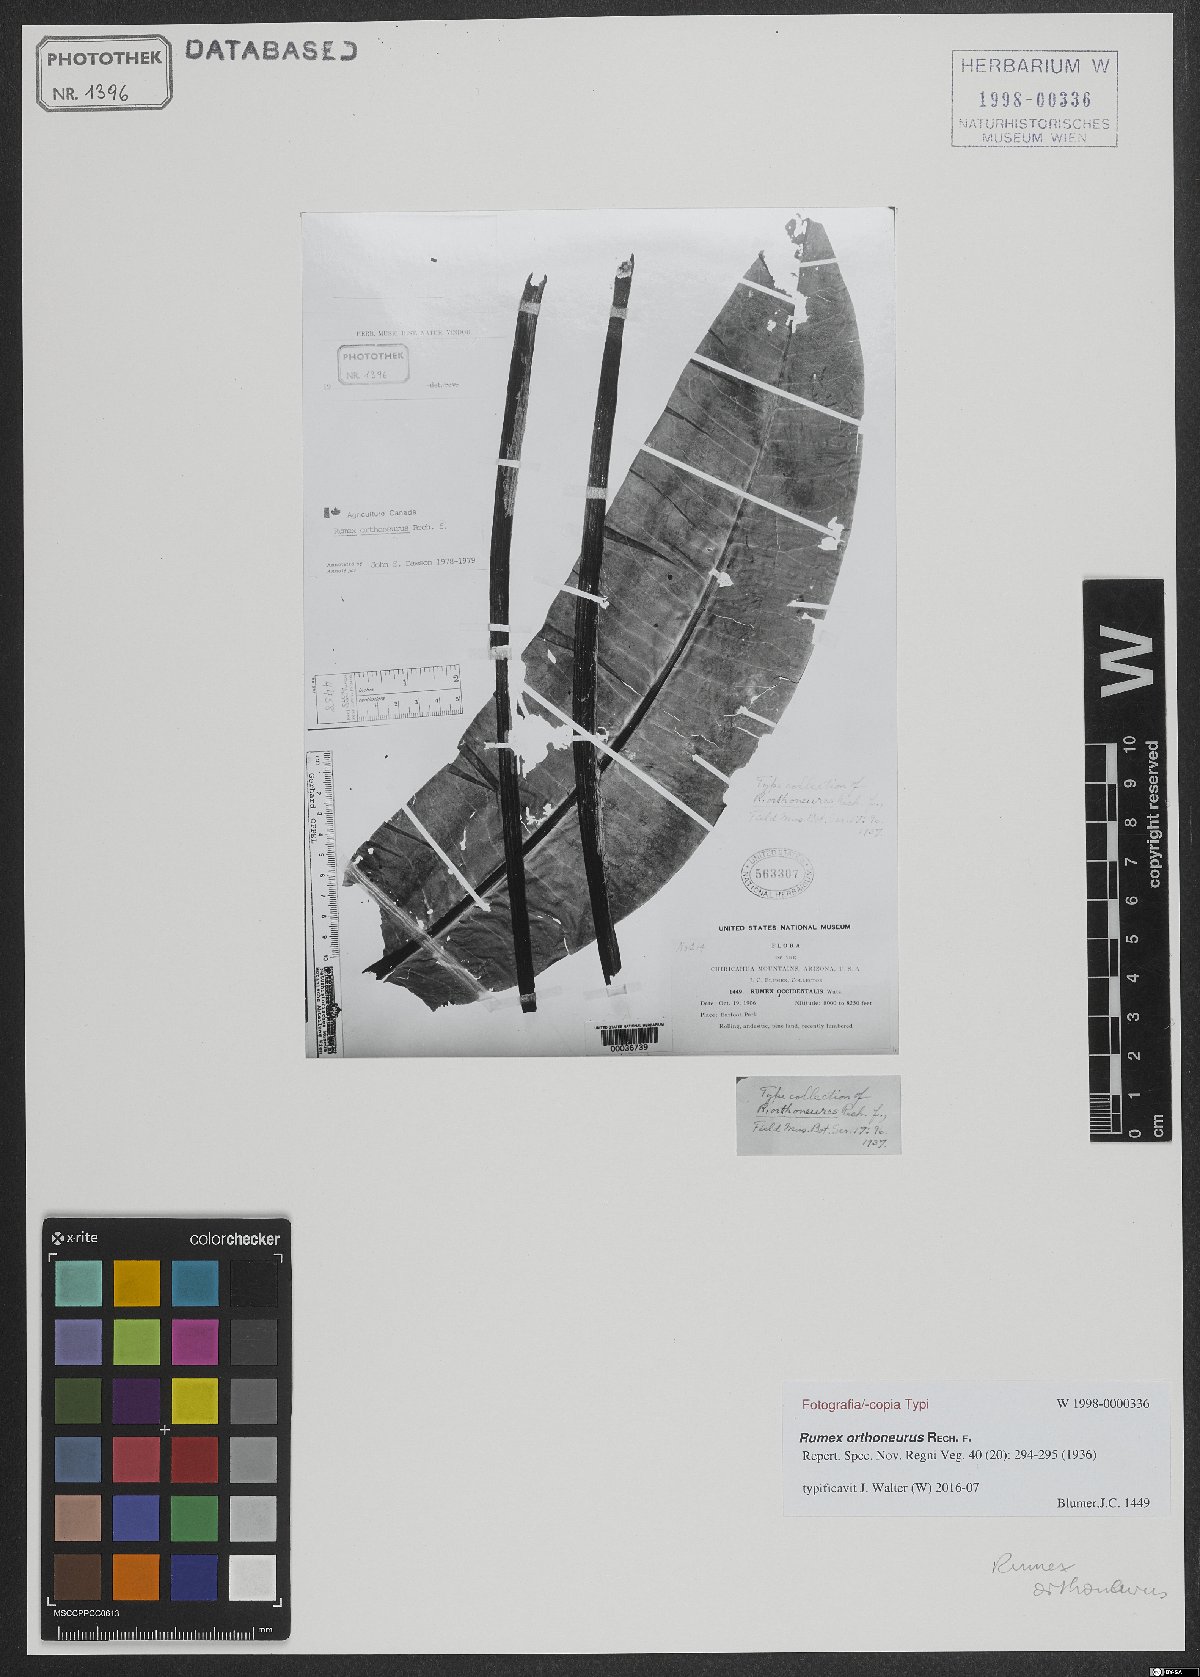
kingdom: Plantae
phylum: Tracheophyta
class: Magnoliopsida
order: Caryophyllales
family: Polygonaceae
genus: Rumex
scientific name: Rumex orthoneurus
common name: Chiricahua dock
